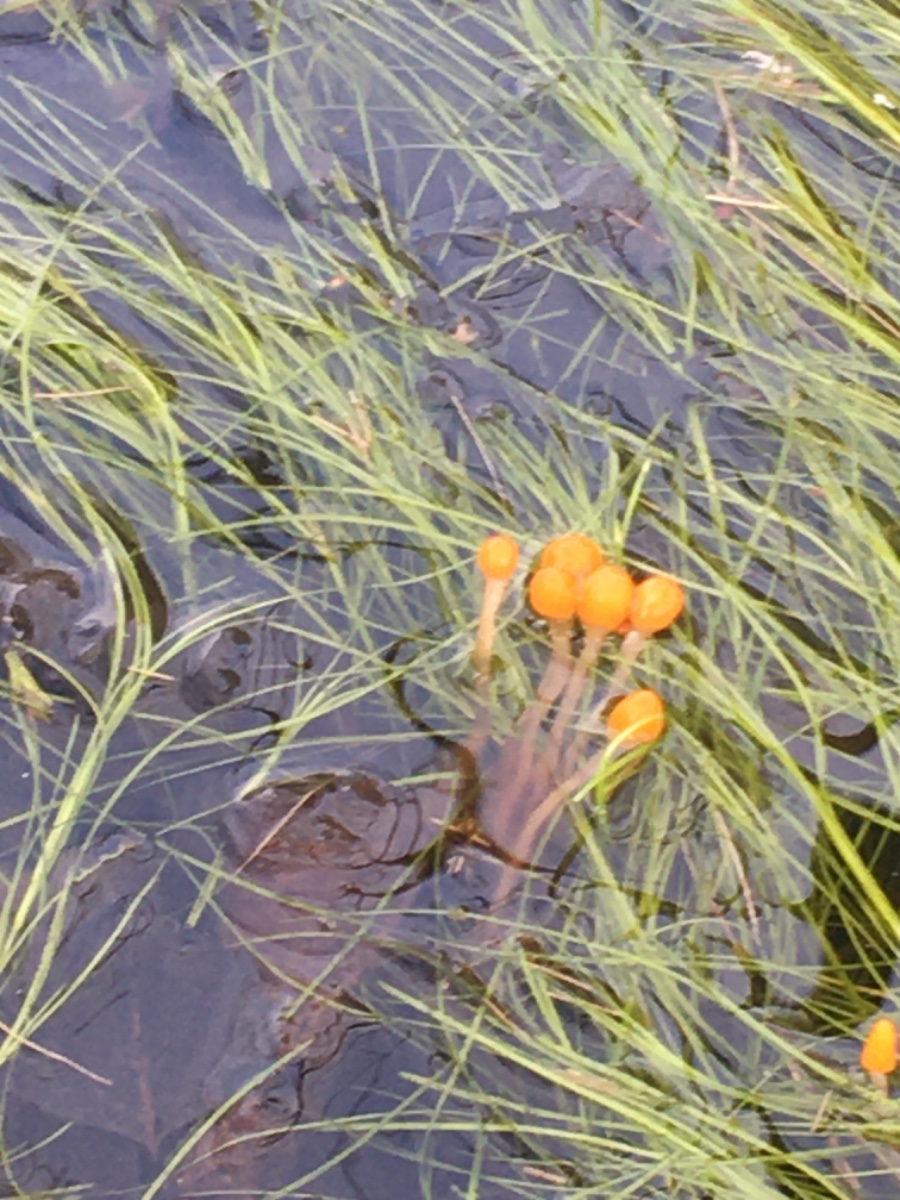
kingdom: Fungi
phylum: Ascomycota
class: Leotiomycetes
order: Helotiales
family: Cenangiaceae
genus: Mitrula
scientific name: Mitrula paludosa
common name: gul nøkketunge
